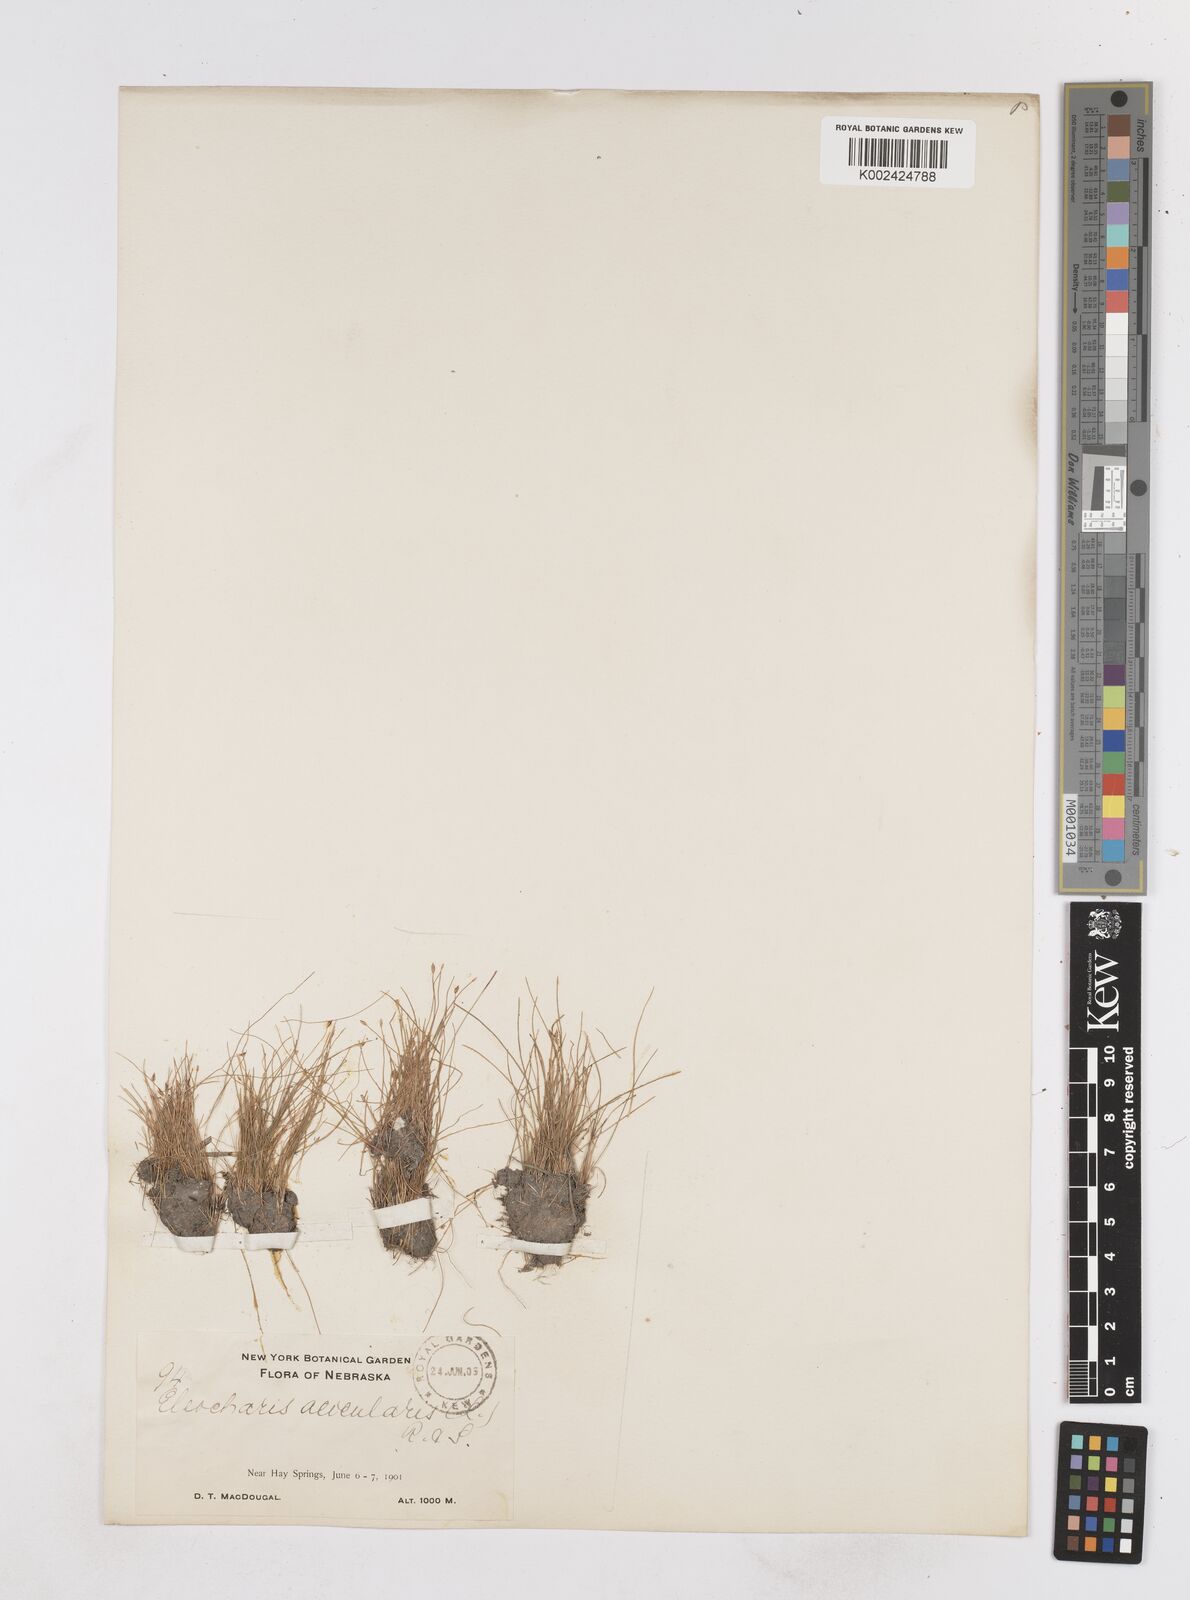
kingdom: Plantae
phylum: Tracheophyta
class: Liliopsida
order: Poales
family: Cyperaceae
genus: Eleocharis
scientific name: Eleocharis acicularis
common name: Needle spike-rush
